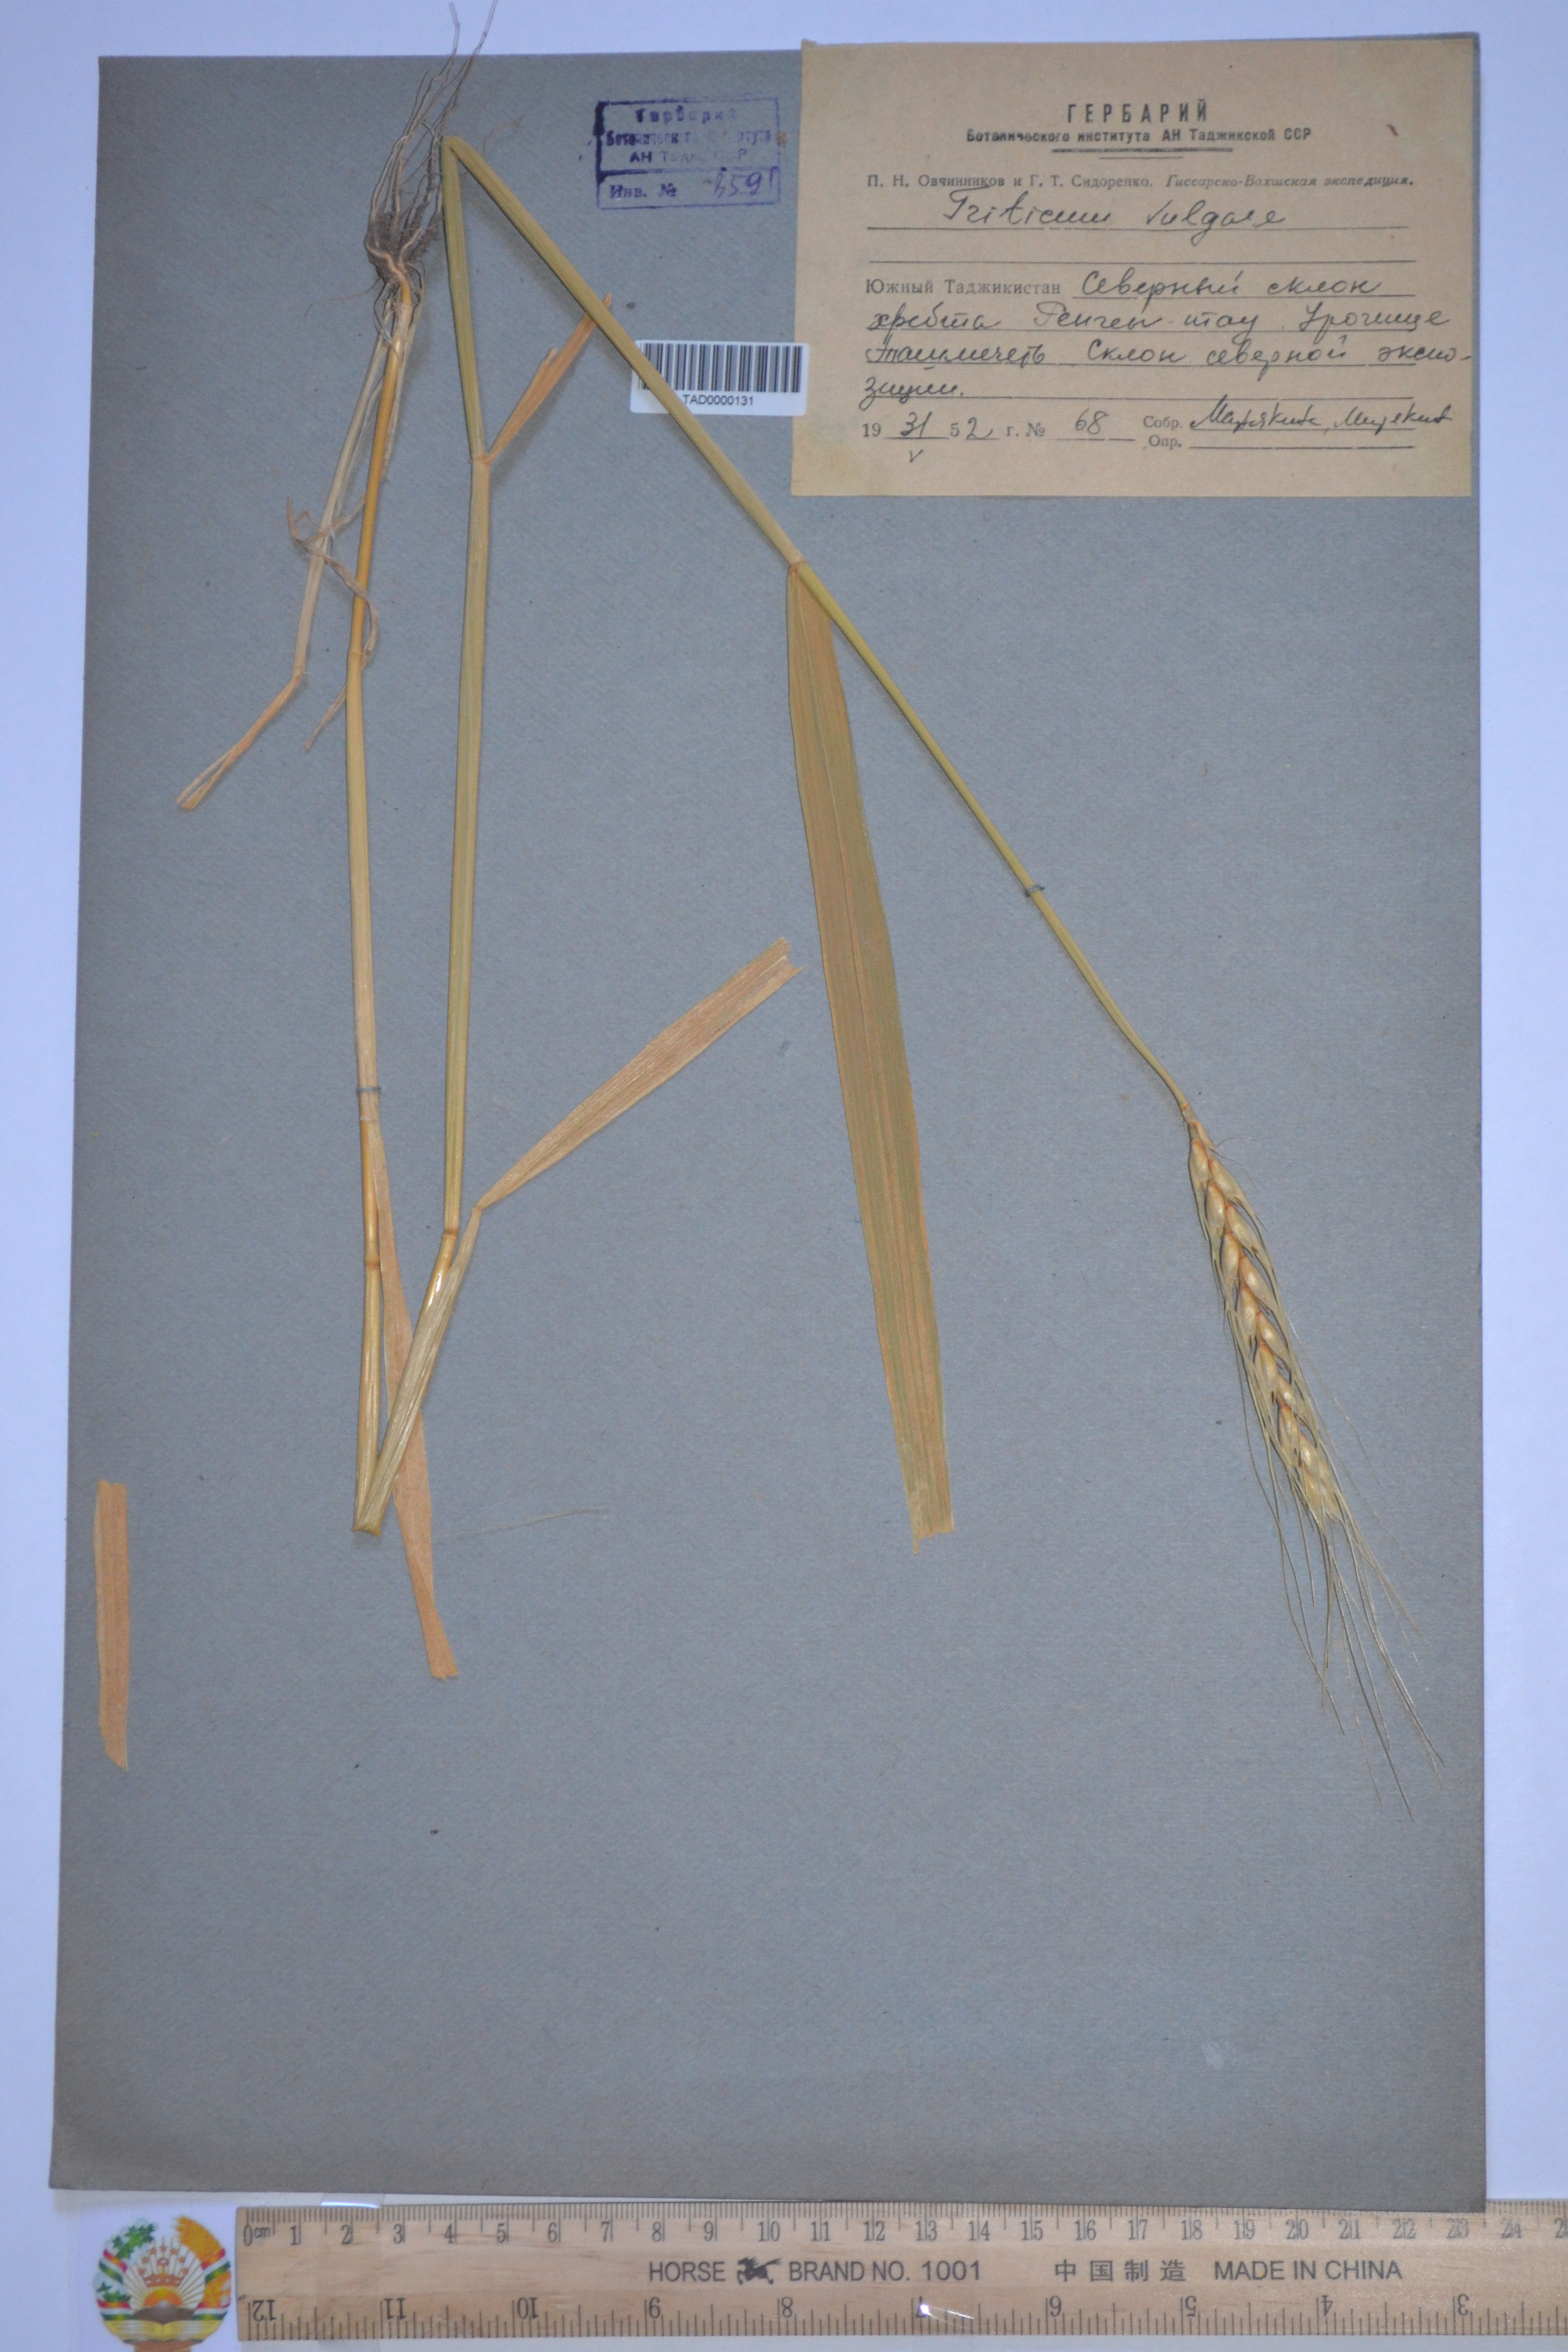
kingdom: Plantae
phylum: Tracheophyta
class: Liliopsida
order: Poales
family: Poaceae
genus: Hordeum
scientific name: Hordeum vulgare
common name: Common barley
